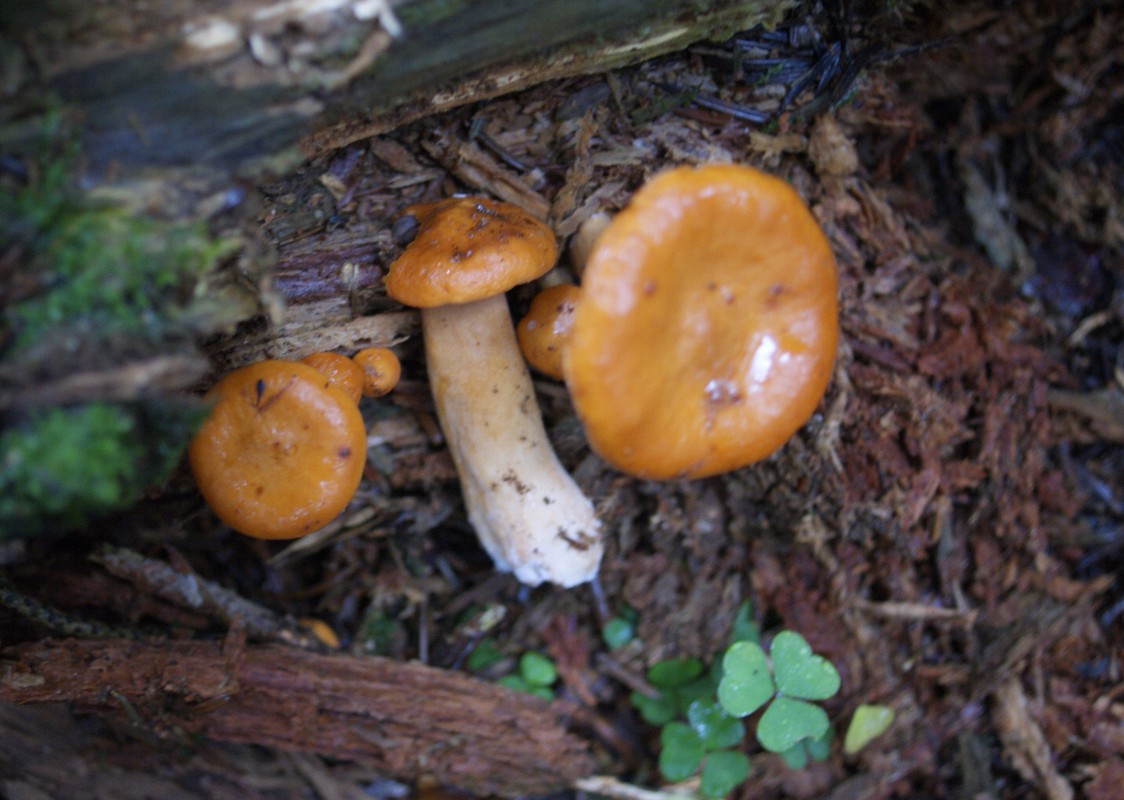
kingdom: Fungi
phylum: Basidiomycota
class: Agaricomycetes
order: Russulales
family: Russulaceae
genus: Lactarius
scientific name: Lactarius aurantiacus
